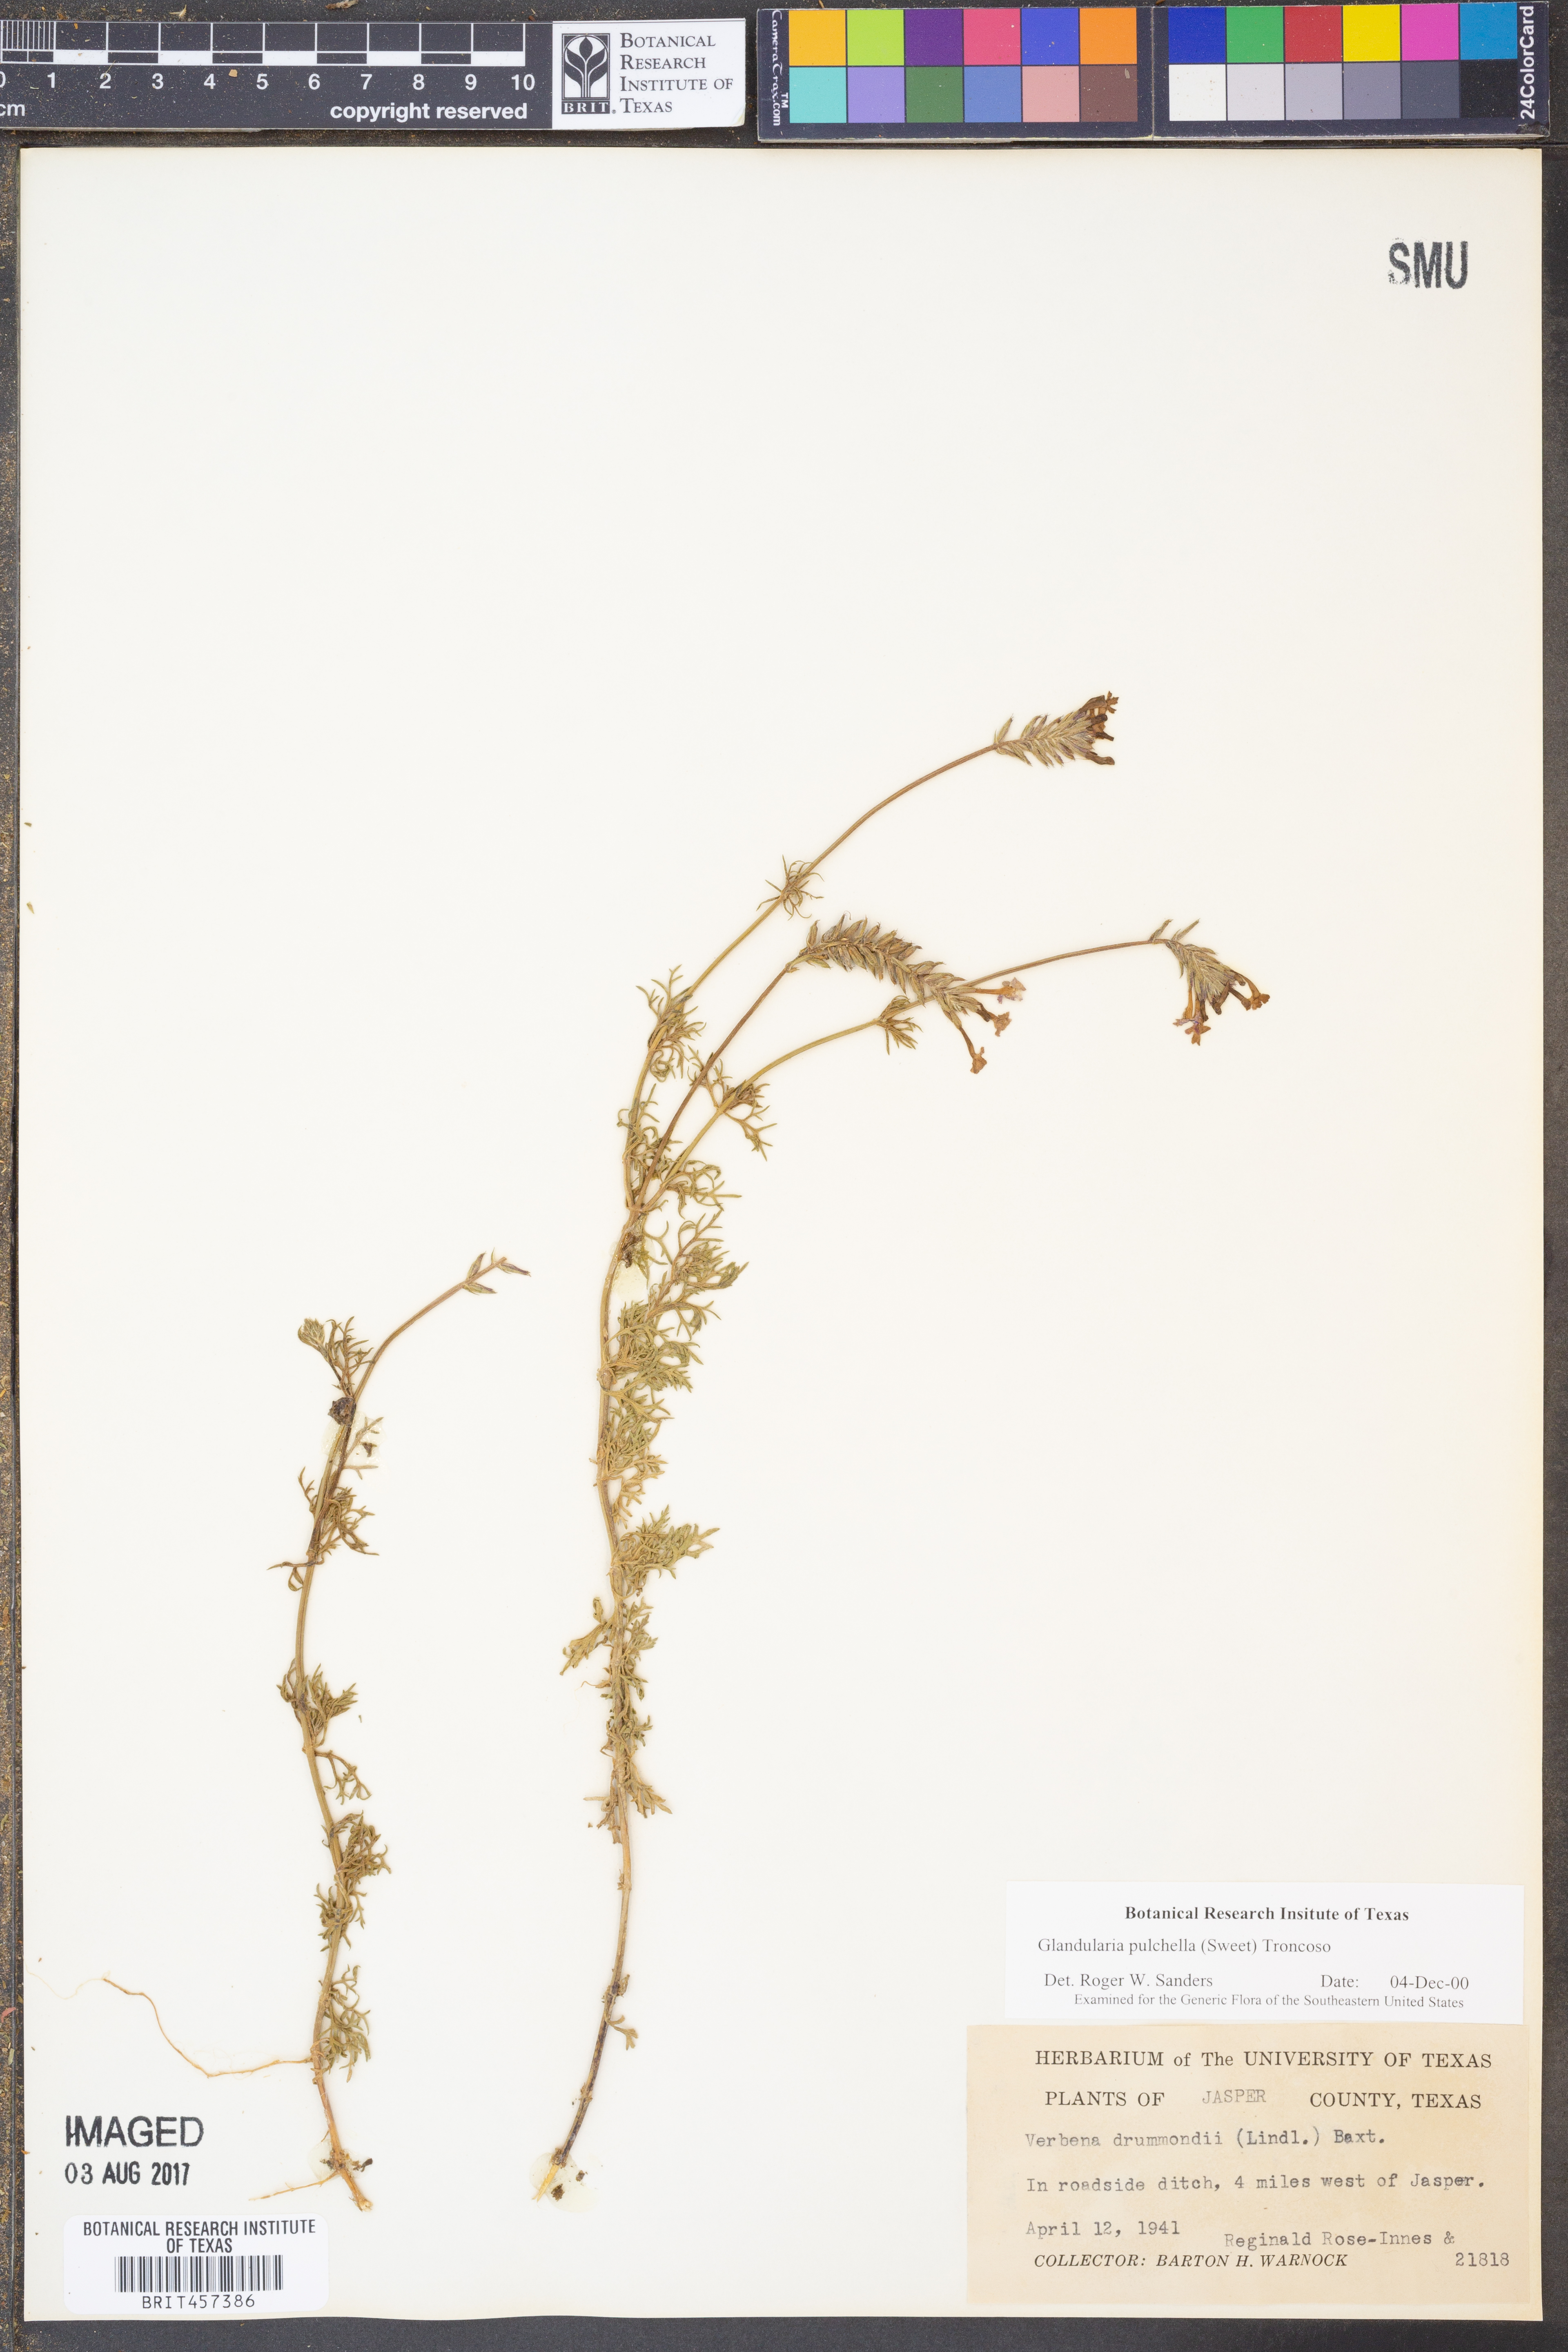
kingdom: Plantae
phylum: Tracheophyta
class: Magnoliopsida
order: Lamiales
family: Verbenaceae
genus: Verbena
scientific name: Verbena canadensis
